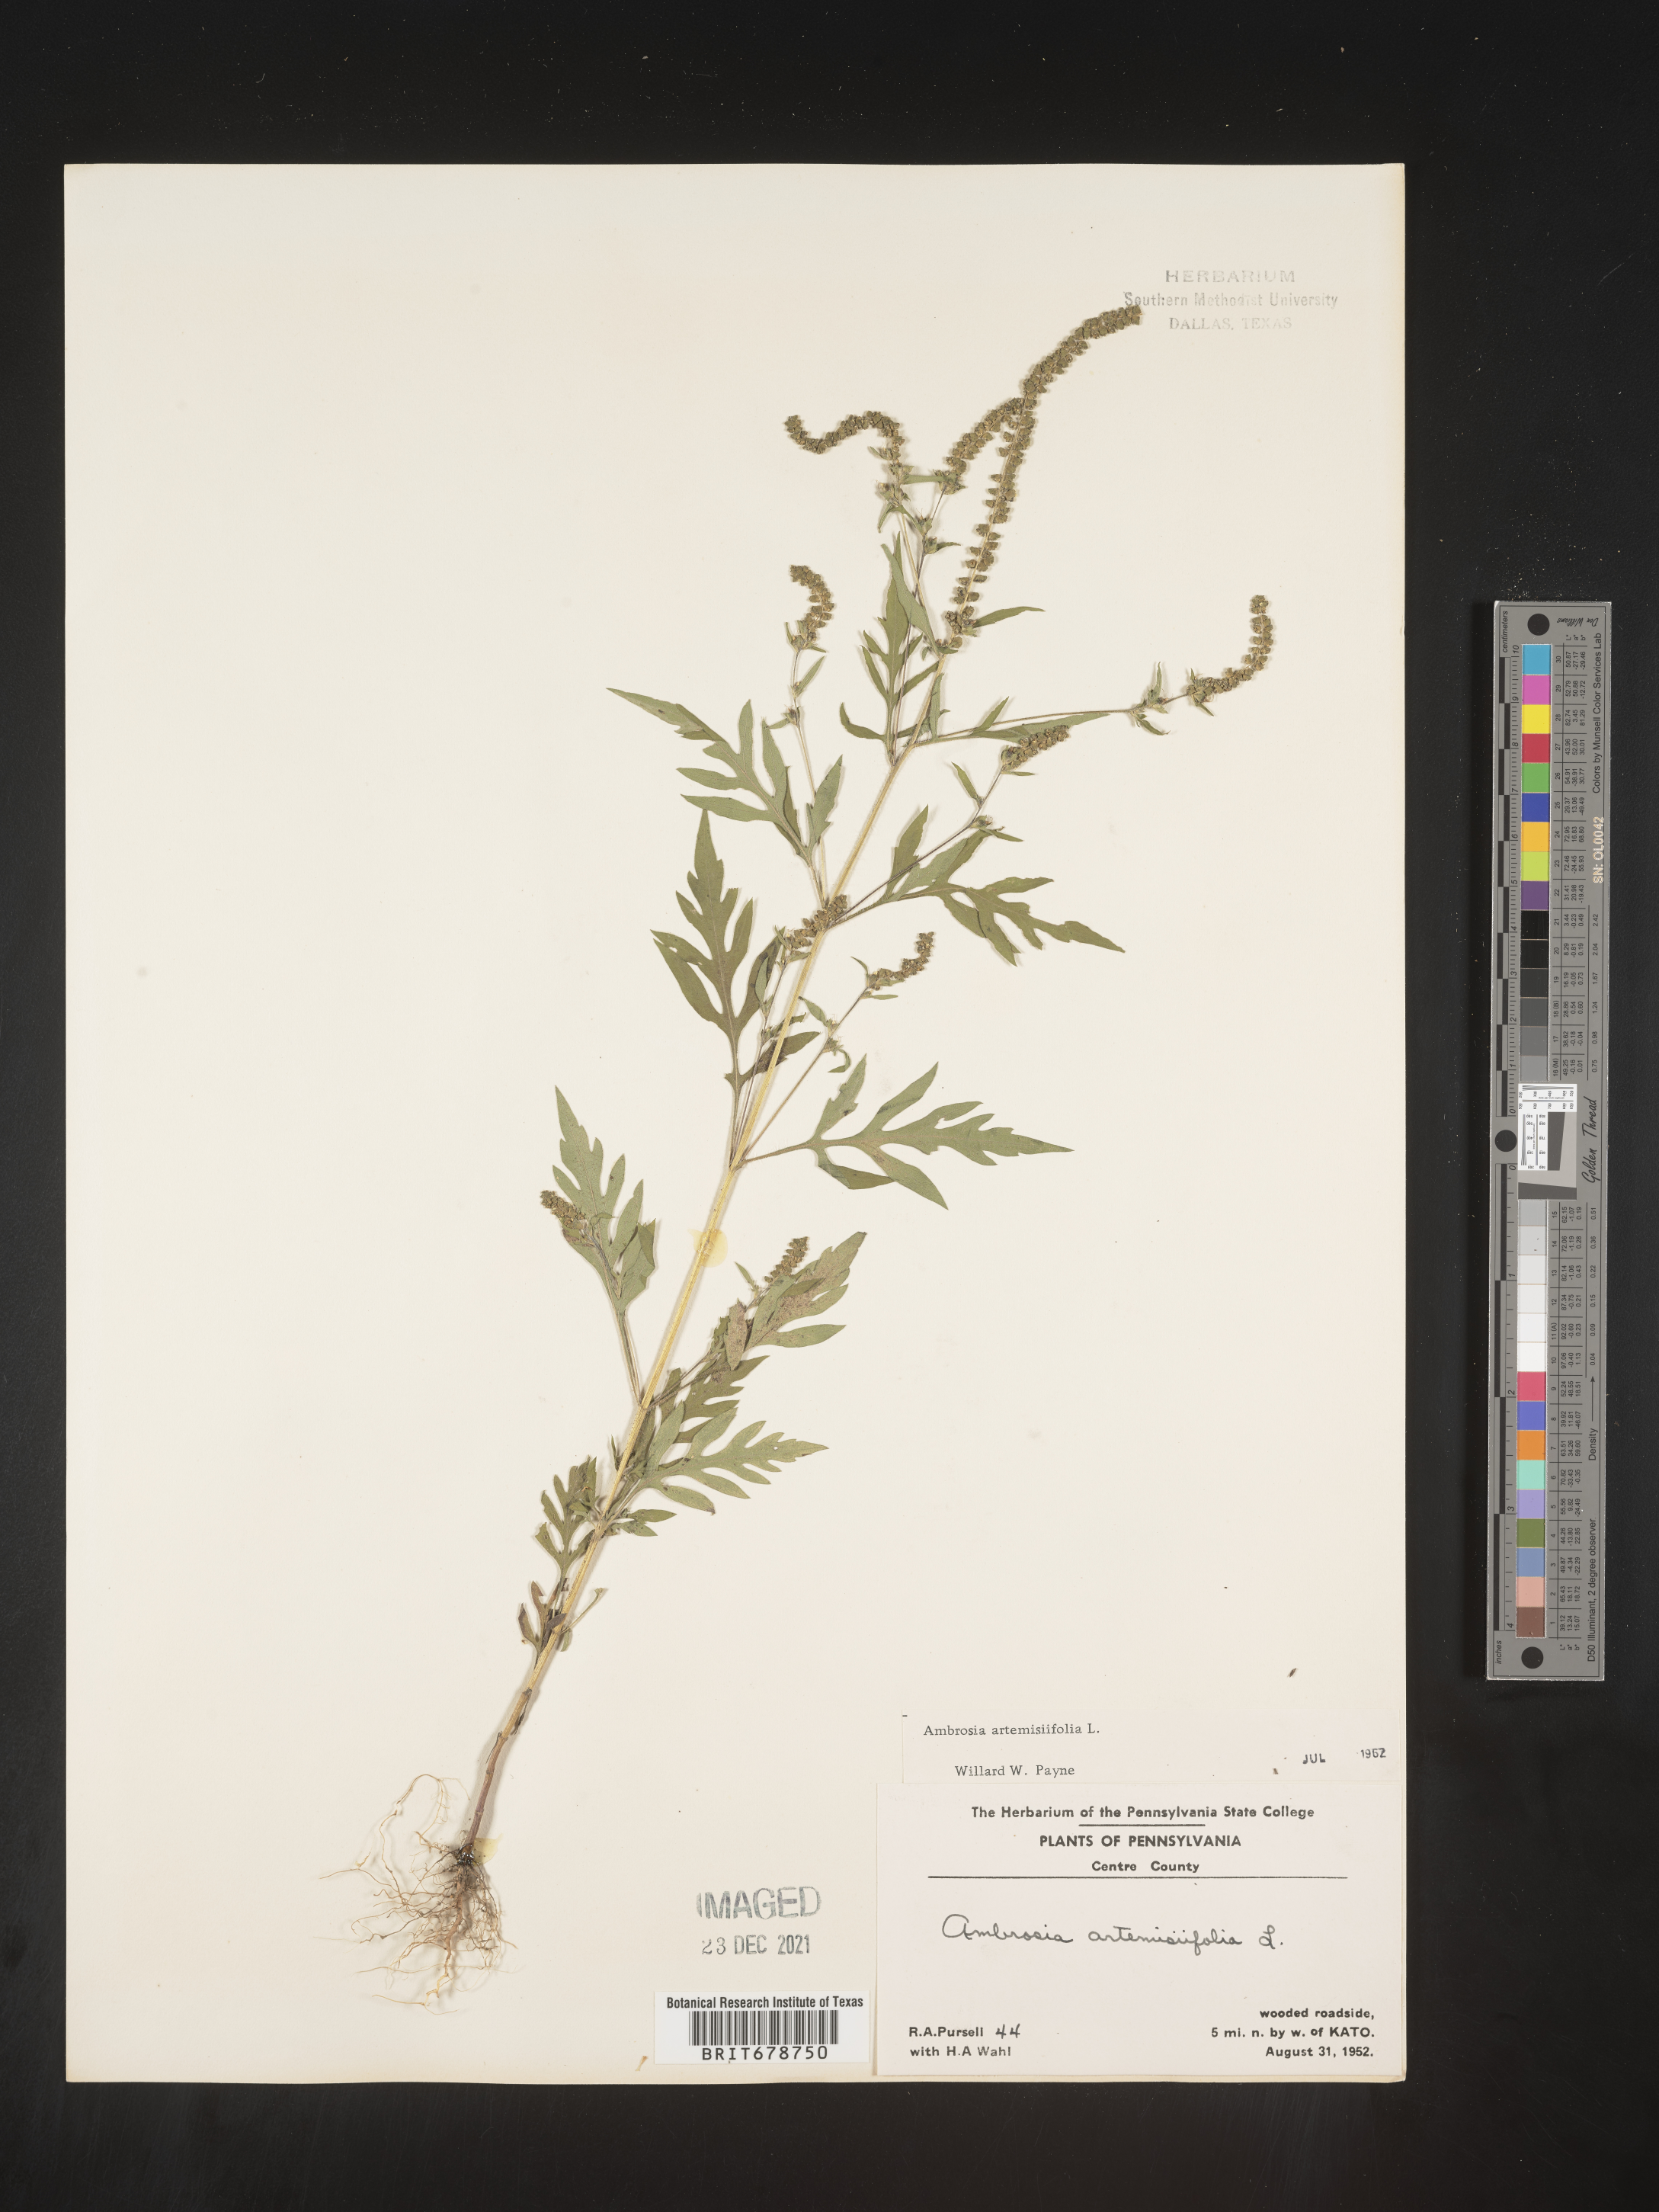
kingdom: Plantae
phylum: Tracheophyta
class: Magnoliopsida
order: Asterales
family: Asteraceae
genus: Ambrosia
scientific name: Ambrosia artemisiifolia
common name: Annual ragweed
